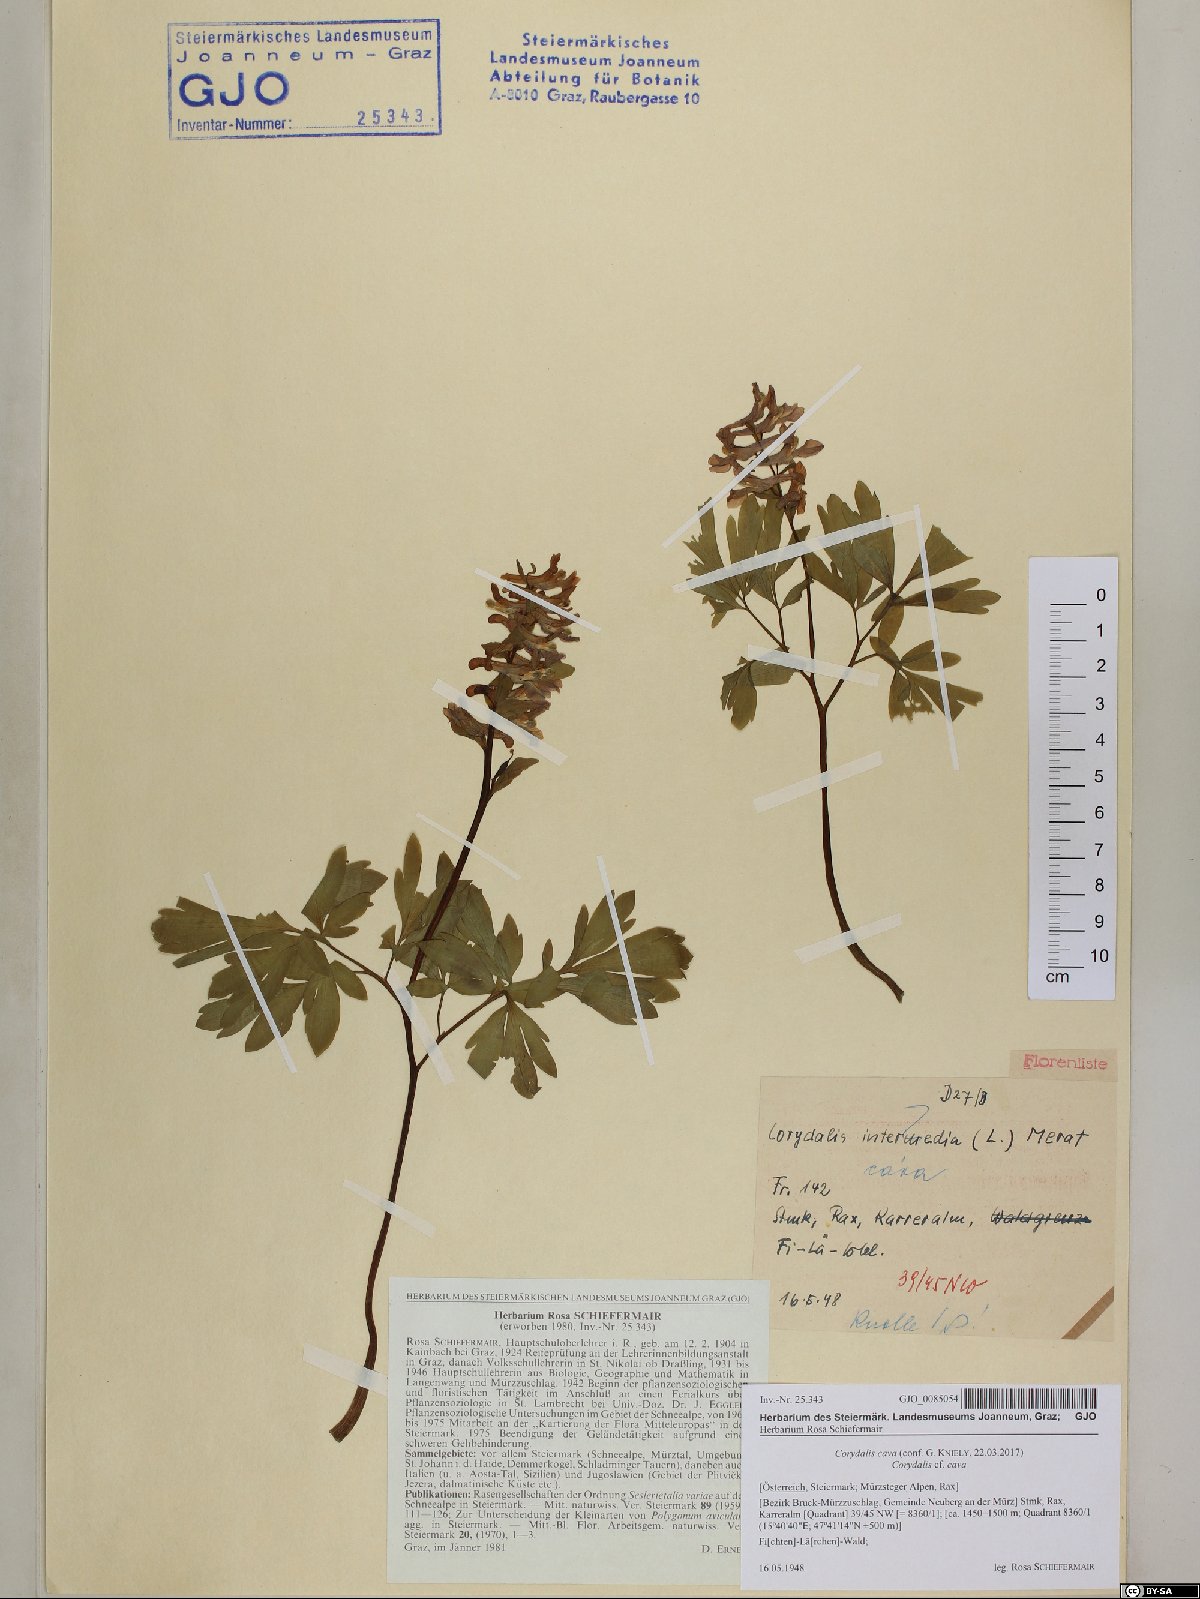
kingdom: Plantae
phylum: Tracheophyta
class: Magnoliopsida
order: Ranunculales
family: Papaveraceae
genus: Corydalis
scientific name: Corydalis cava
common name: Hollowroot
